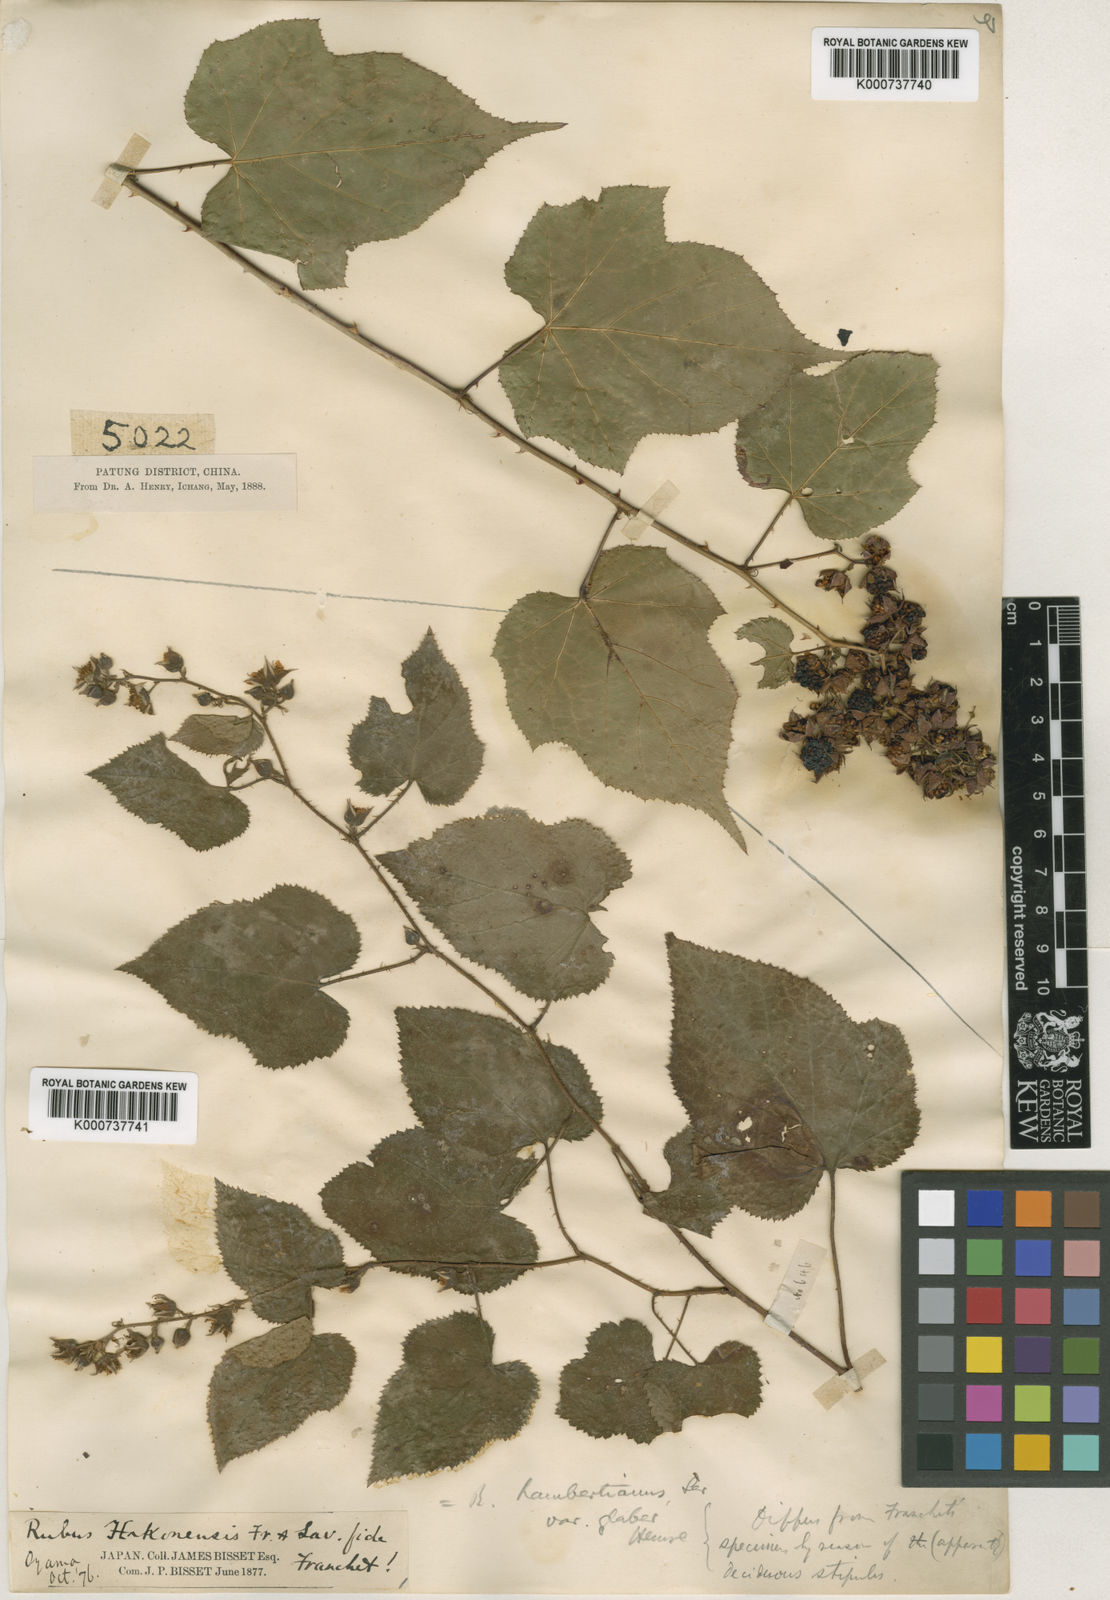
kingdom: Plantae
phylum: Tracheophyta
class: Magnoliopsida
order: Rosales
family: Rosaceae
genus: Rubus
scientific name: Rubus lambertianus
